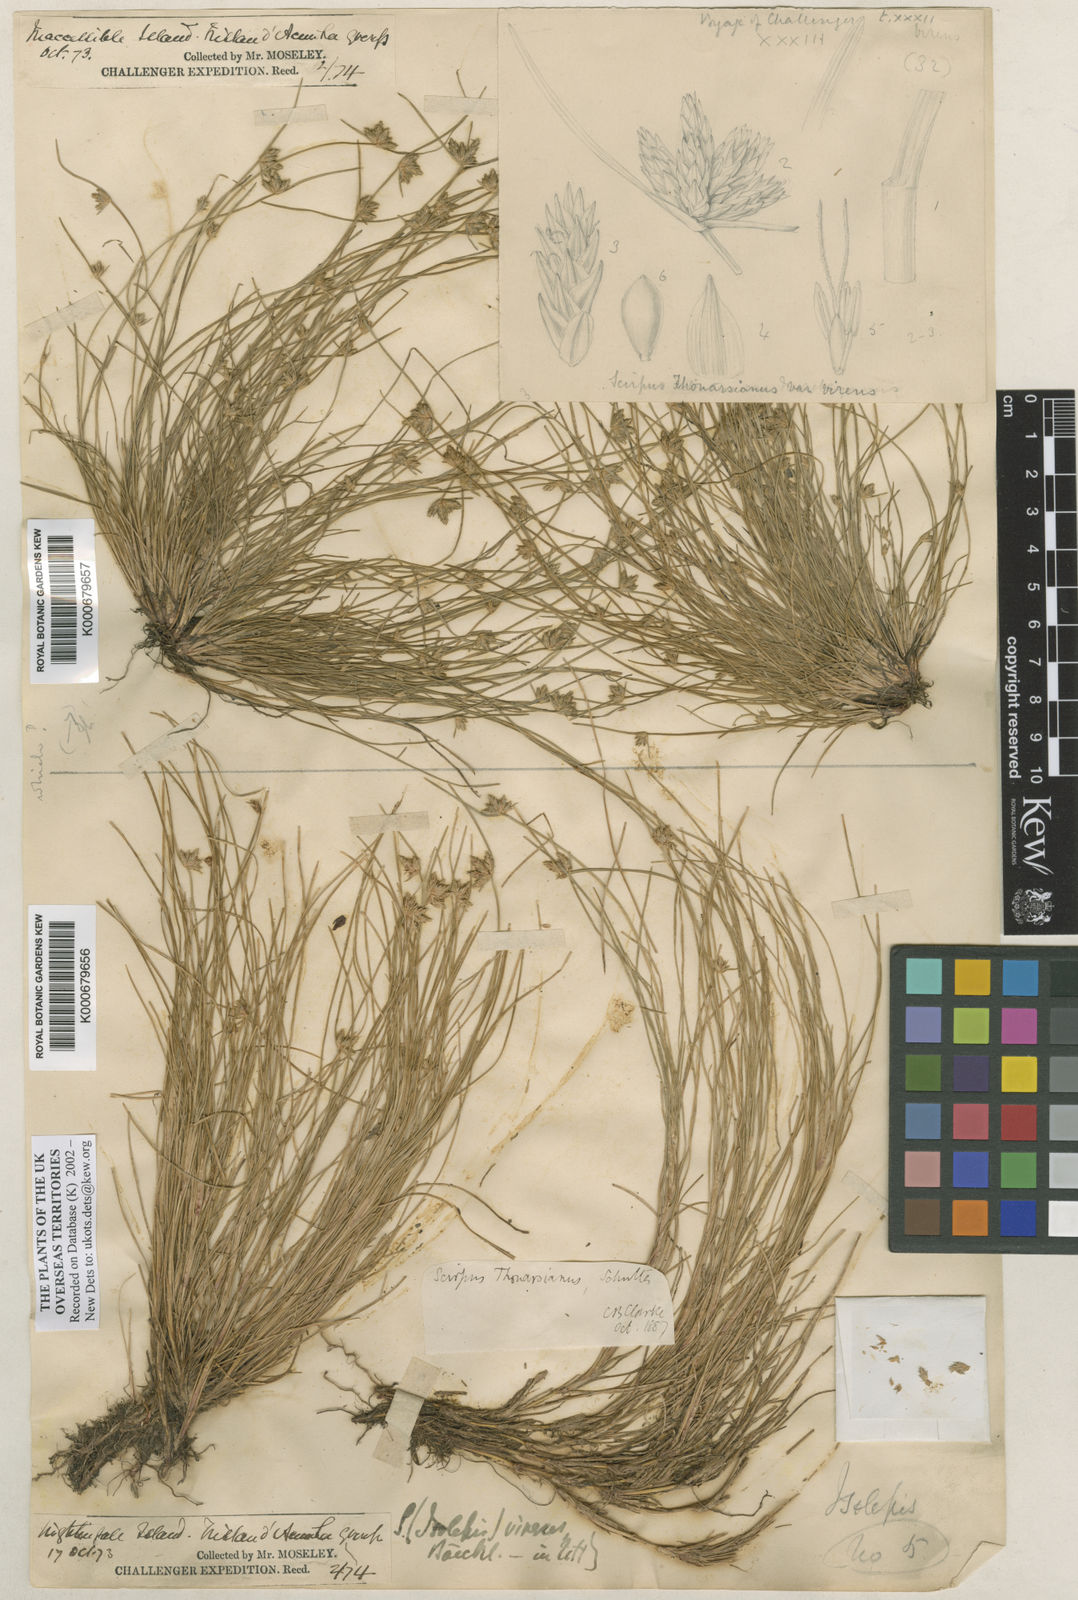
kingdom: Plantae
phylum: Tracheophyta
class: Liliopsida
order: Poales
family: Cyperaceae
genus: Isolepis
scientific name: Isolepis bicolor
